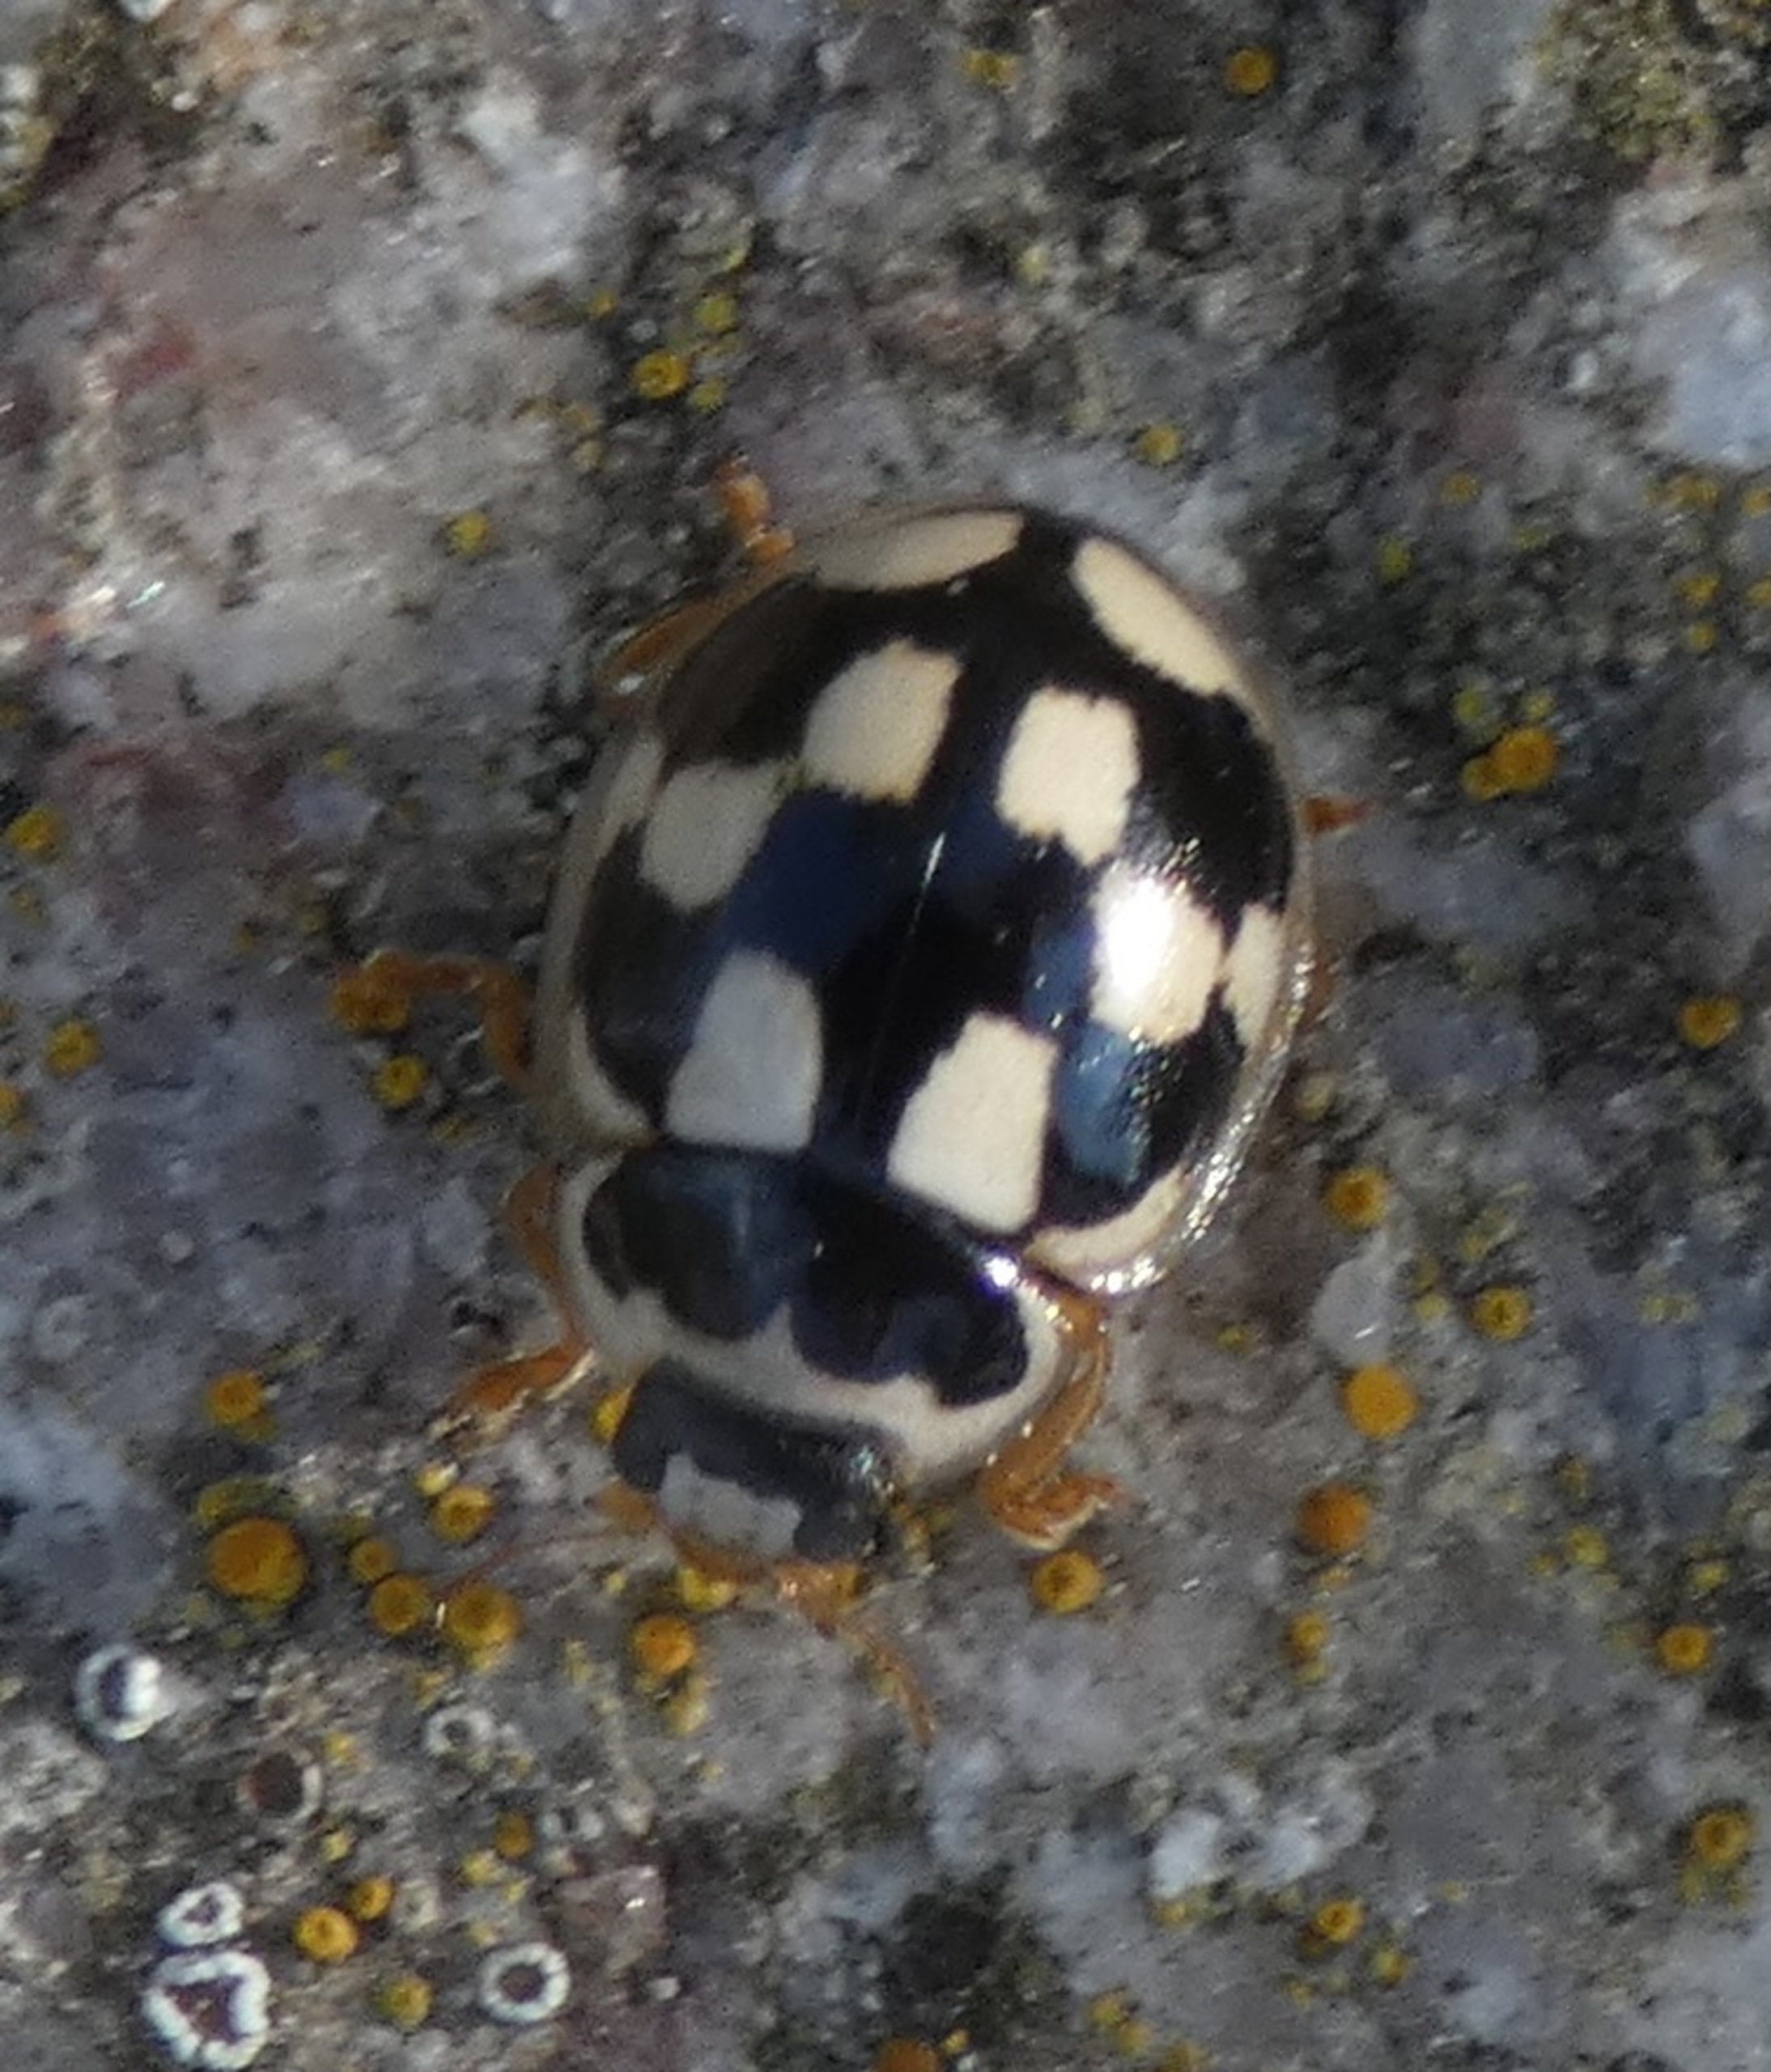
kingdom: Animalia
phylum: Arthropoda
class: Insecta
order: Coleoptera
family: Coccinellidae
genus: Propylaea
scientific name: Propylaea quatuordecimpunctata
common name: Skakbræt
